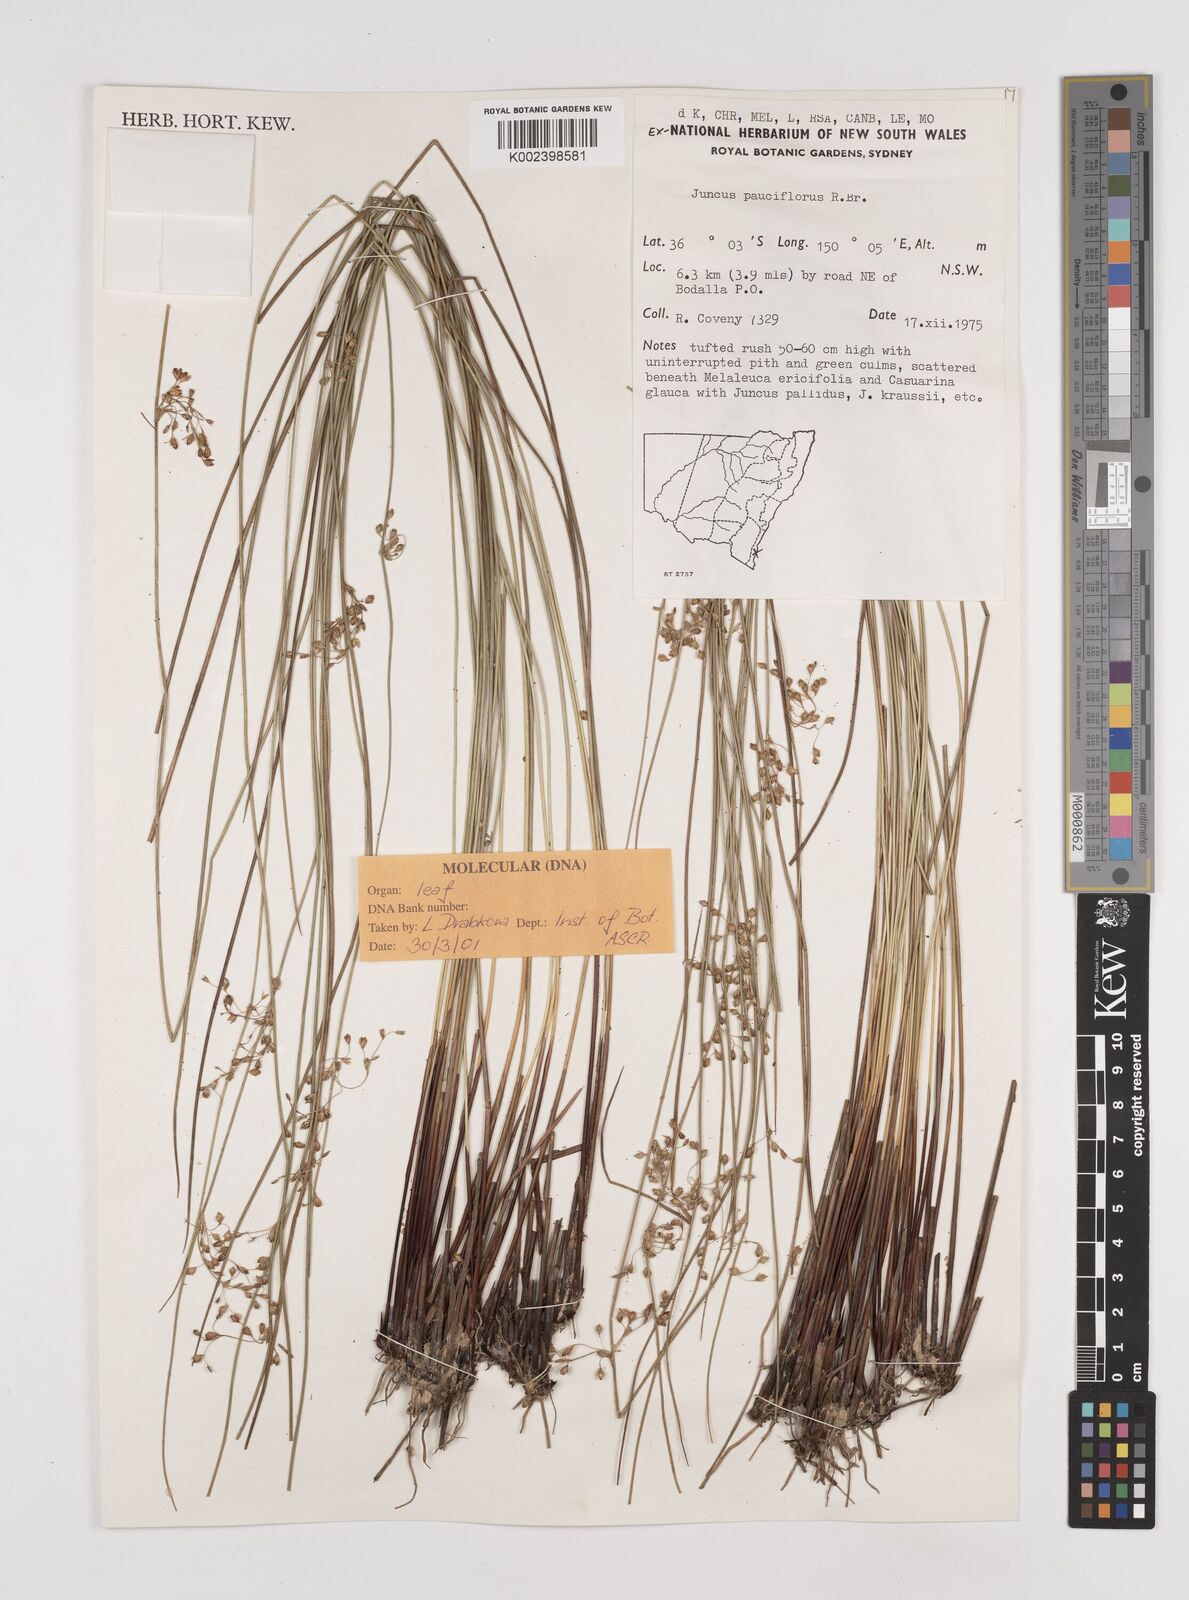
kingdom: Plantae
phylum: Tracheophyta
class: Liliopsida
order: Poales
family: Juncaceae
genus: Juncus
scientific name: Juncus pauciflorus
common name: Loose-flowered rush
